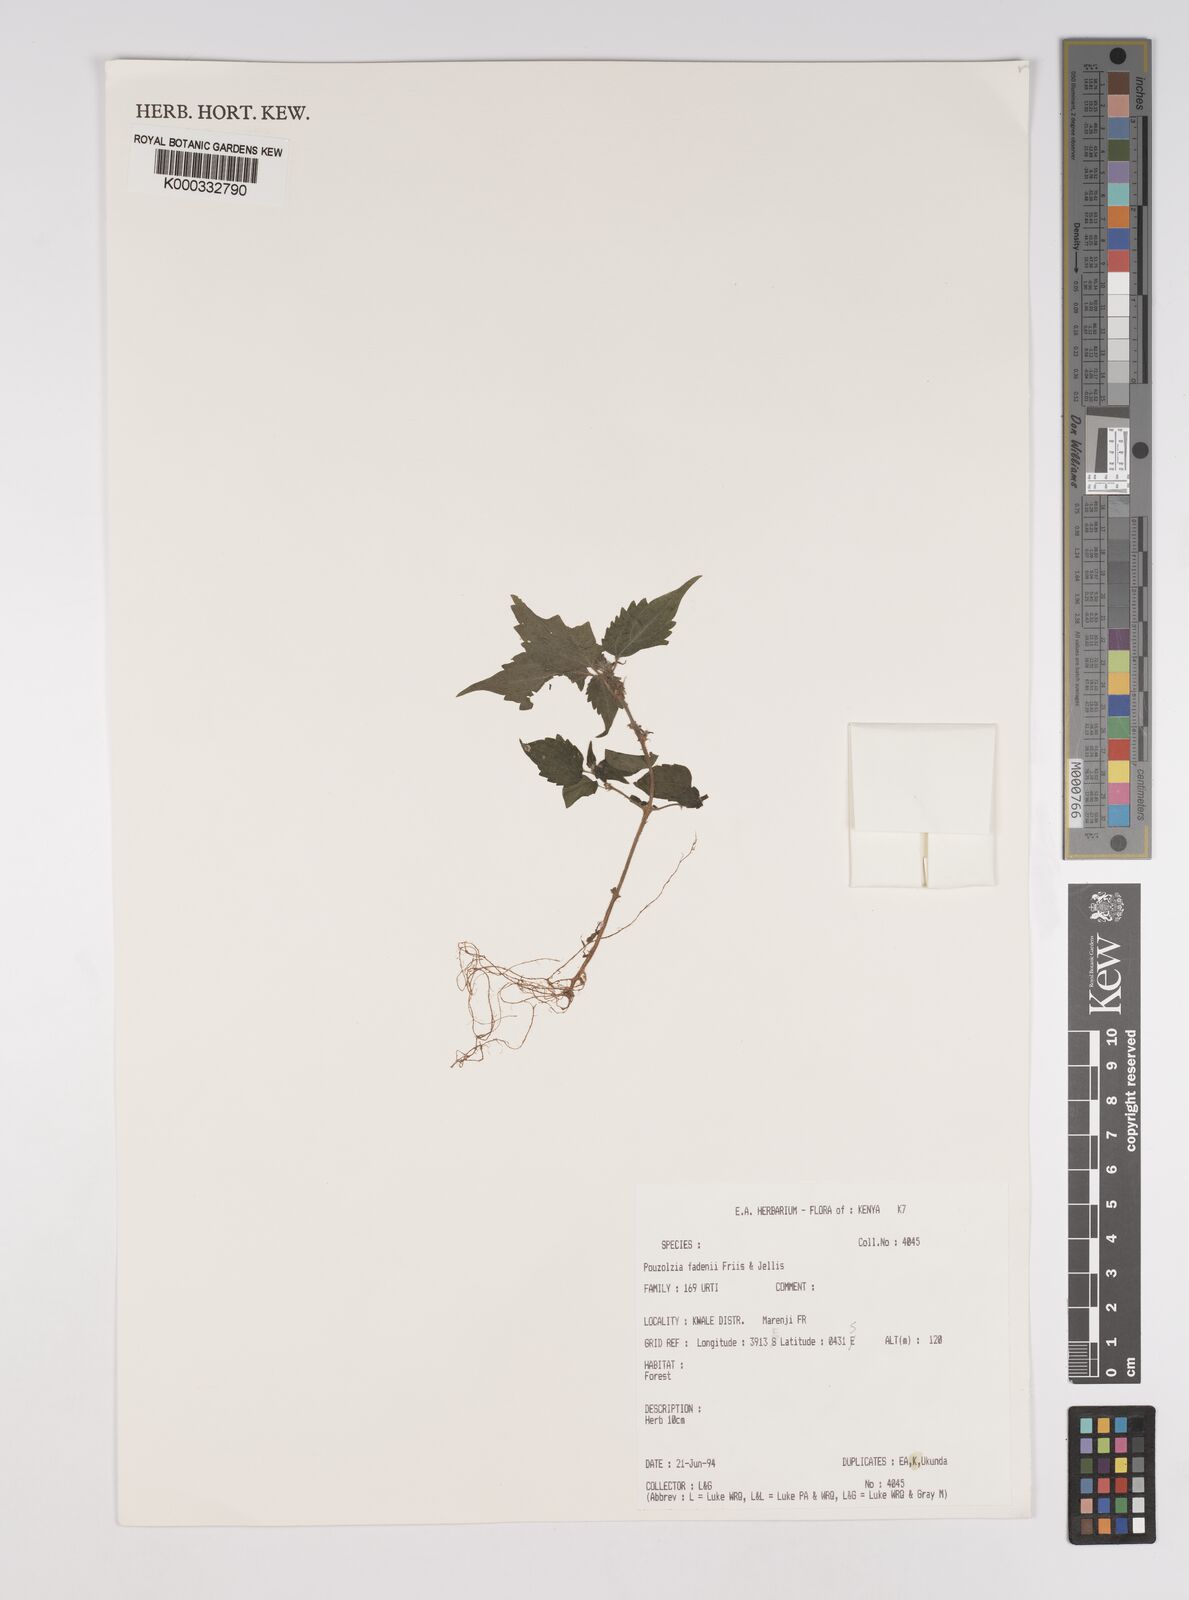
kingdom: Plantae
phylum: Tracheophyta
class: Magnoliopsida
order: Rosales
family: Urticaceae
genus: Pouzolzia
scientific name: Pouzolzia fadenii
